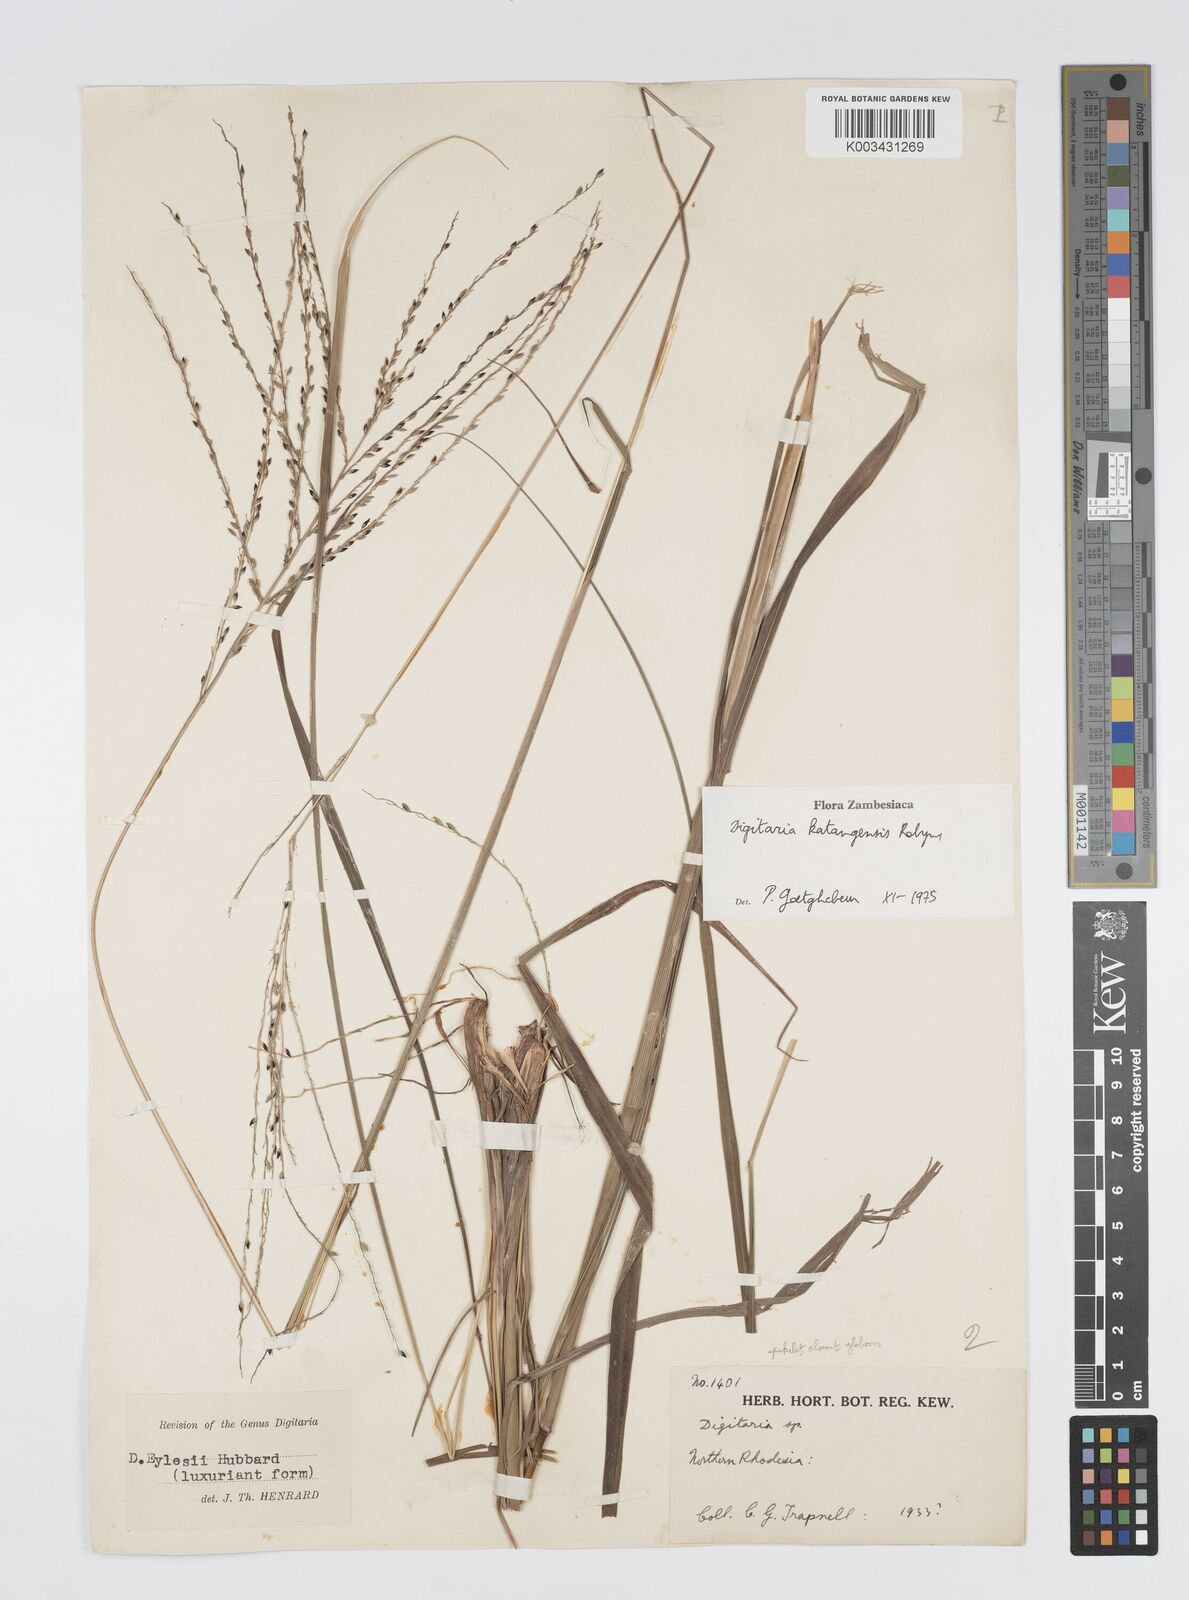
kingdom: Plantae
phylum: Tracheophyta
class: Liliopsida
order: Poales
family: Poaceae
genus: Digitaria
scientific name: Digitaria compressa
